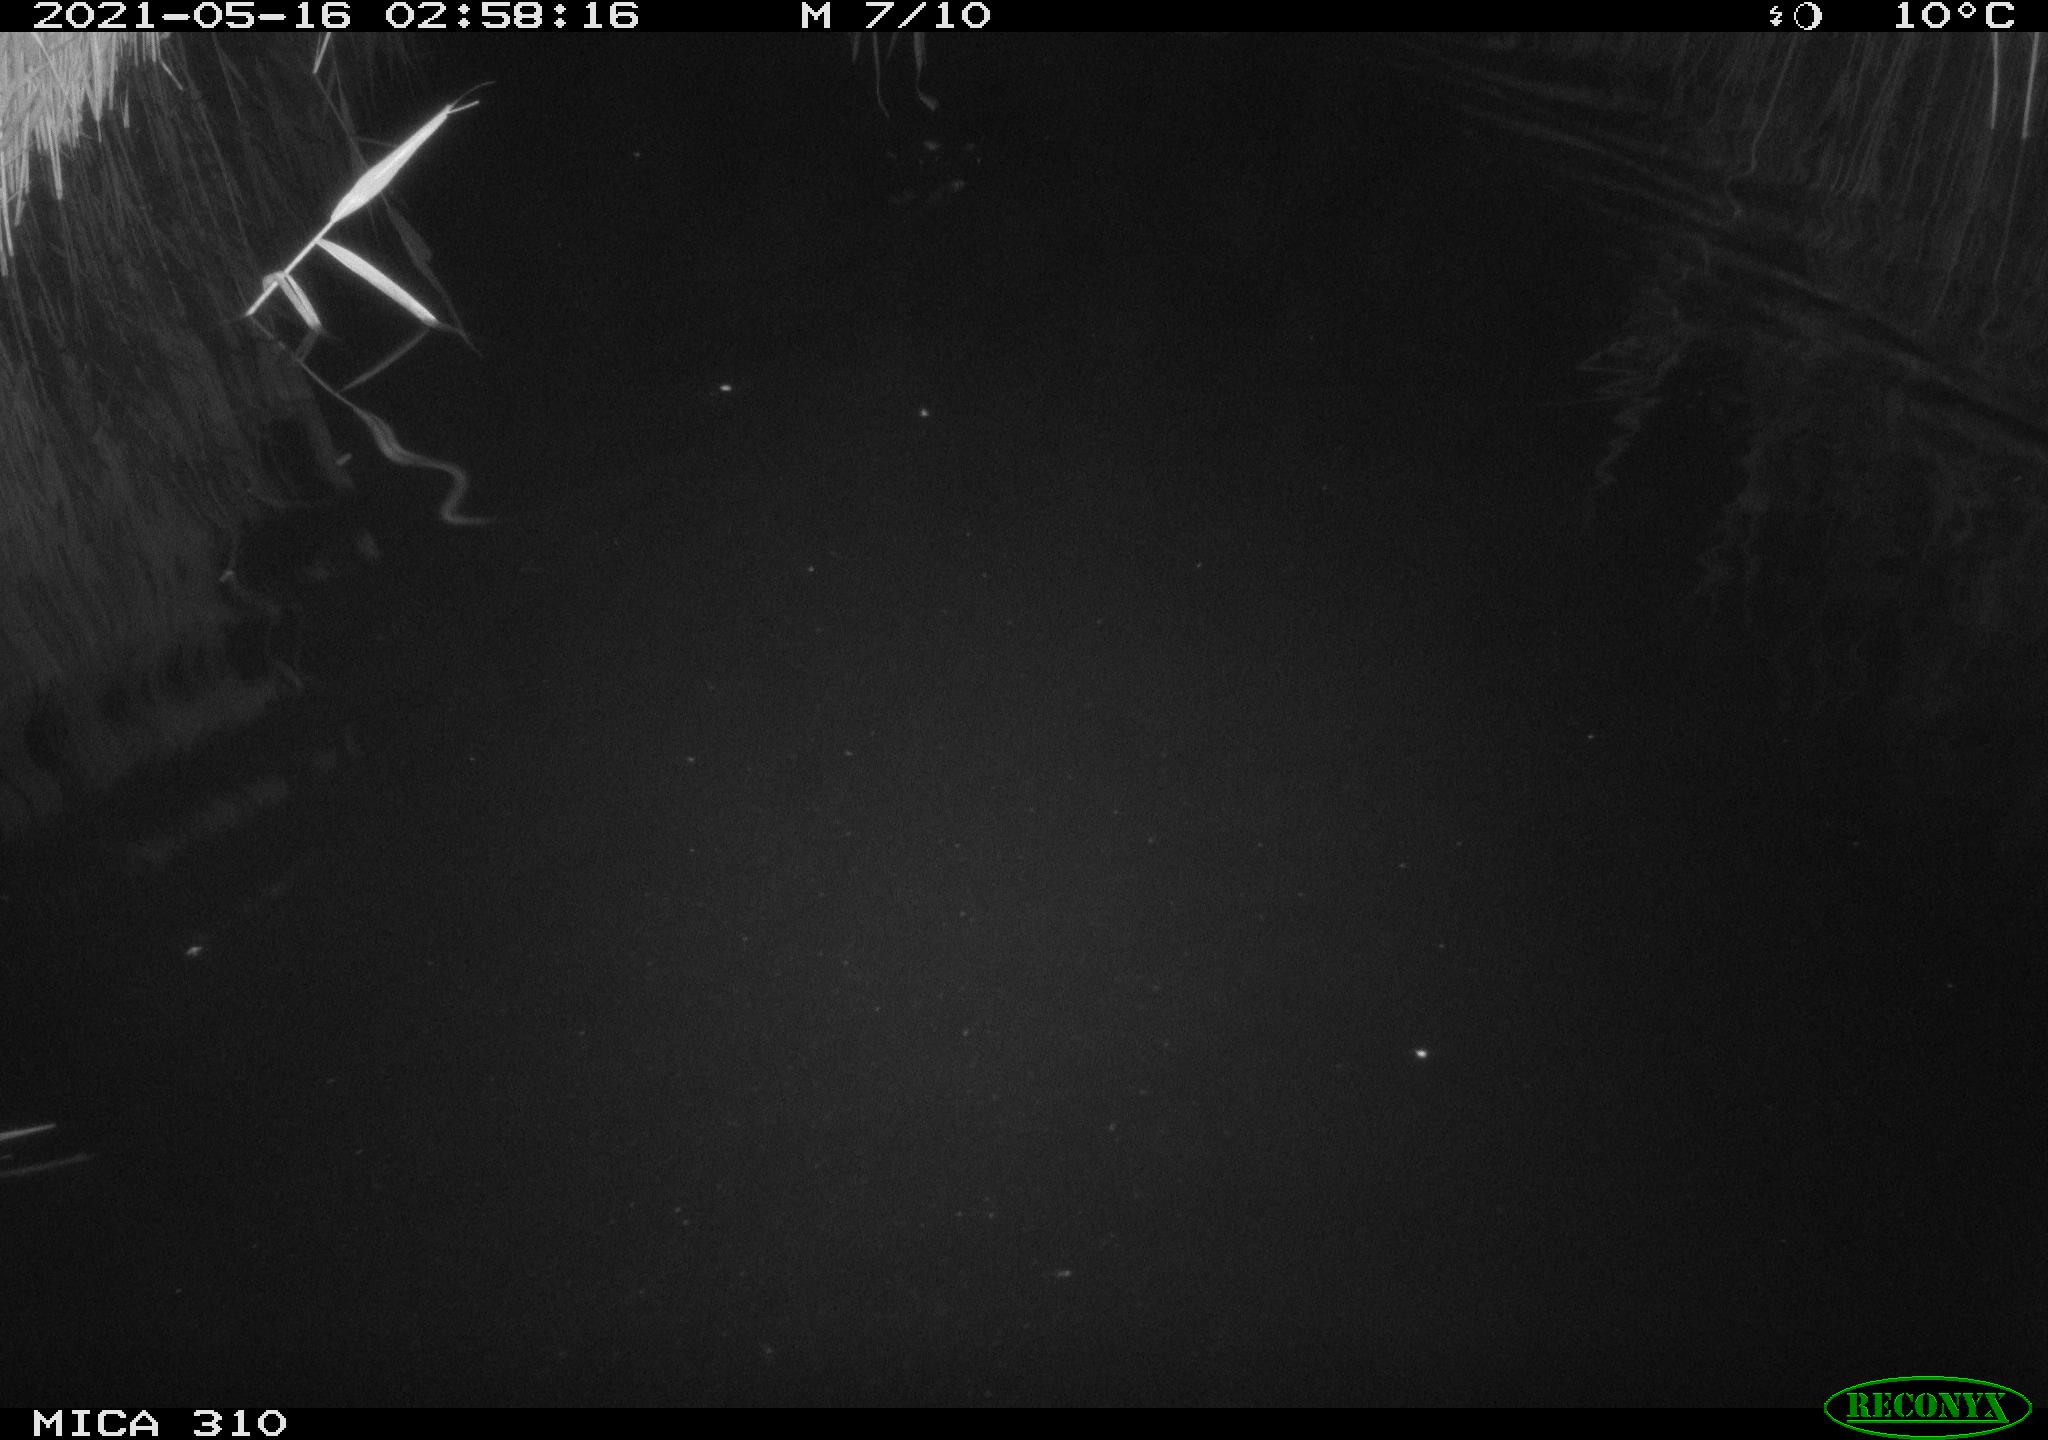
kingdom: Animalia
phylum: Chordata
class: Aves
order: Anseriformes
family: Anatidae
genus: Anas
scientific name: Anas platyrhynchos
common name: Mallard
